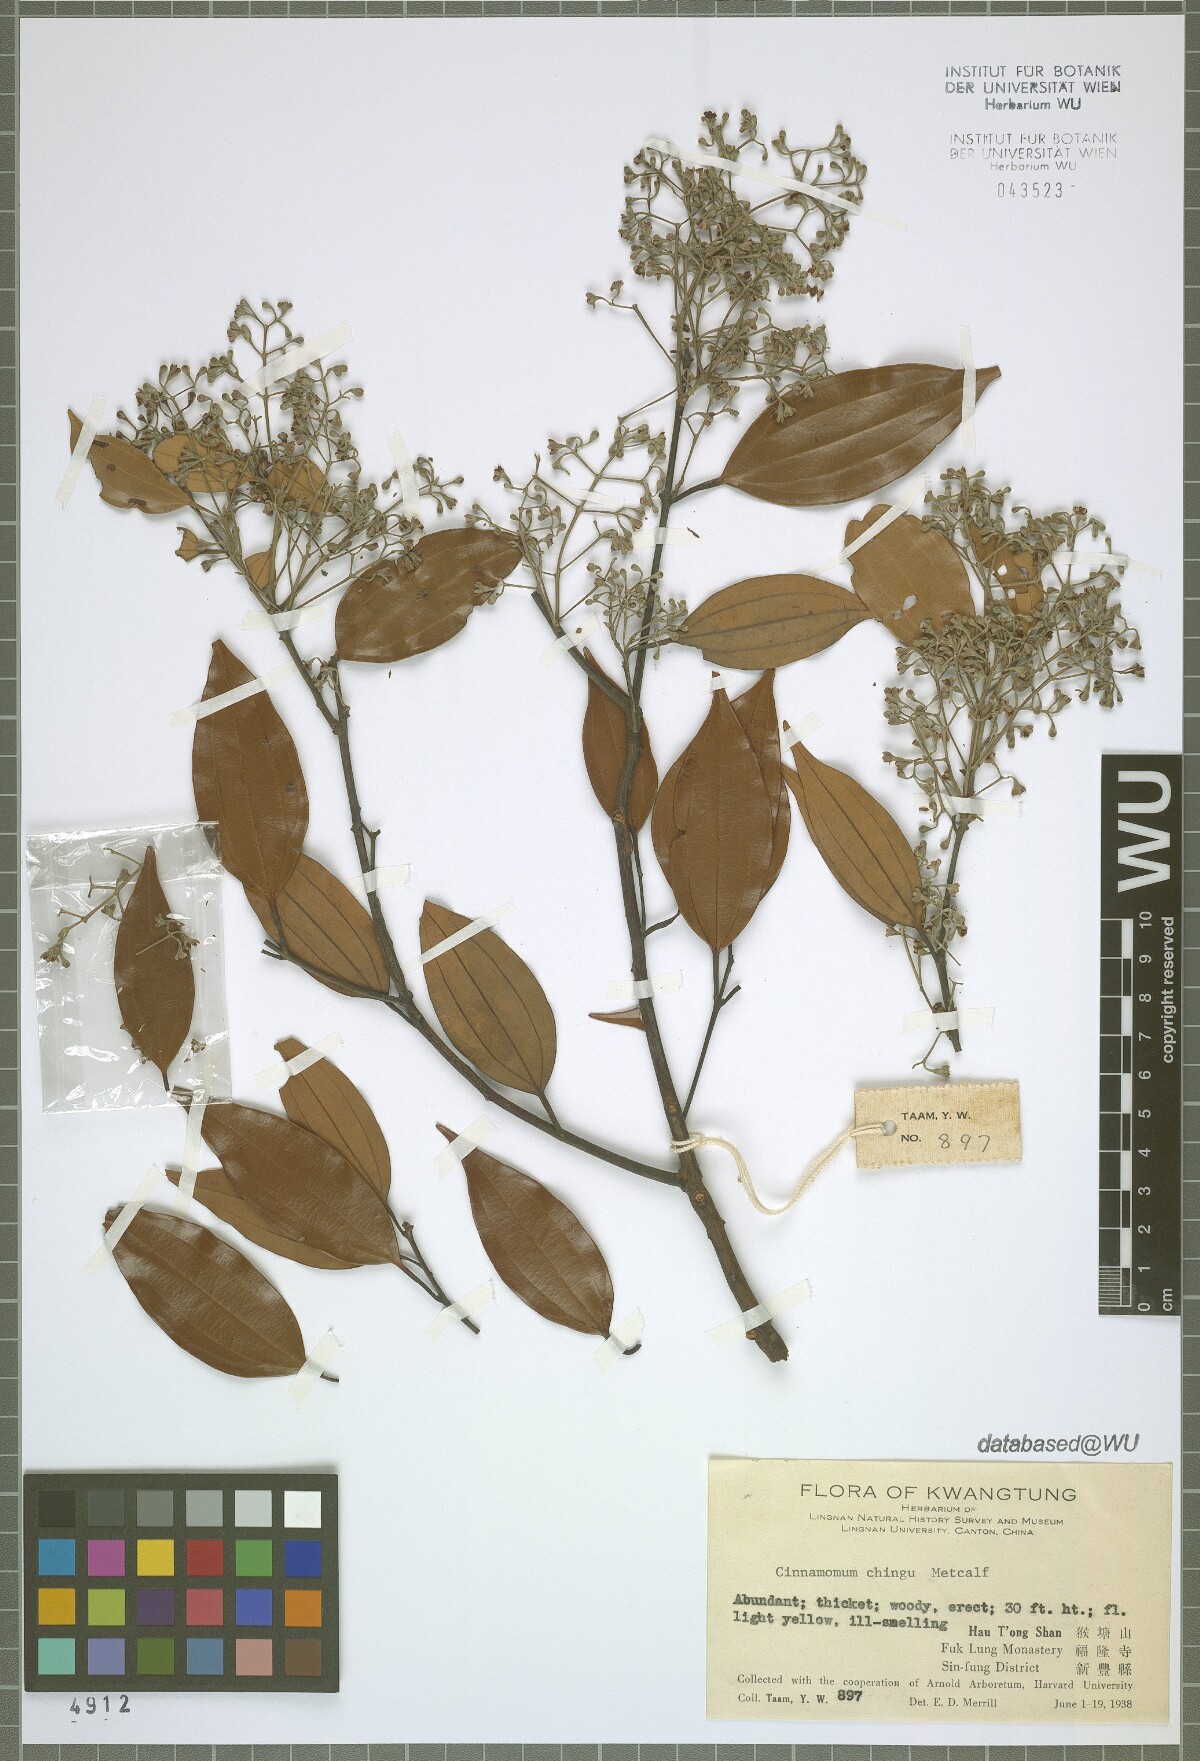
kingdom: Plantae
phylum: Tracheophyta
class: Magnoliopsida
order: Laurales
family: Lauraceae
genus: Cinnamomum
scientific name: Cinnamomum subavenium
